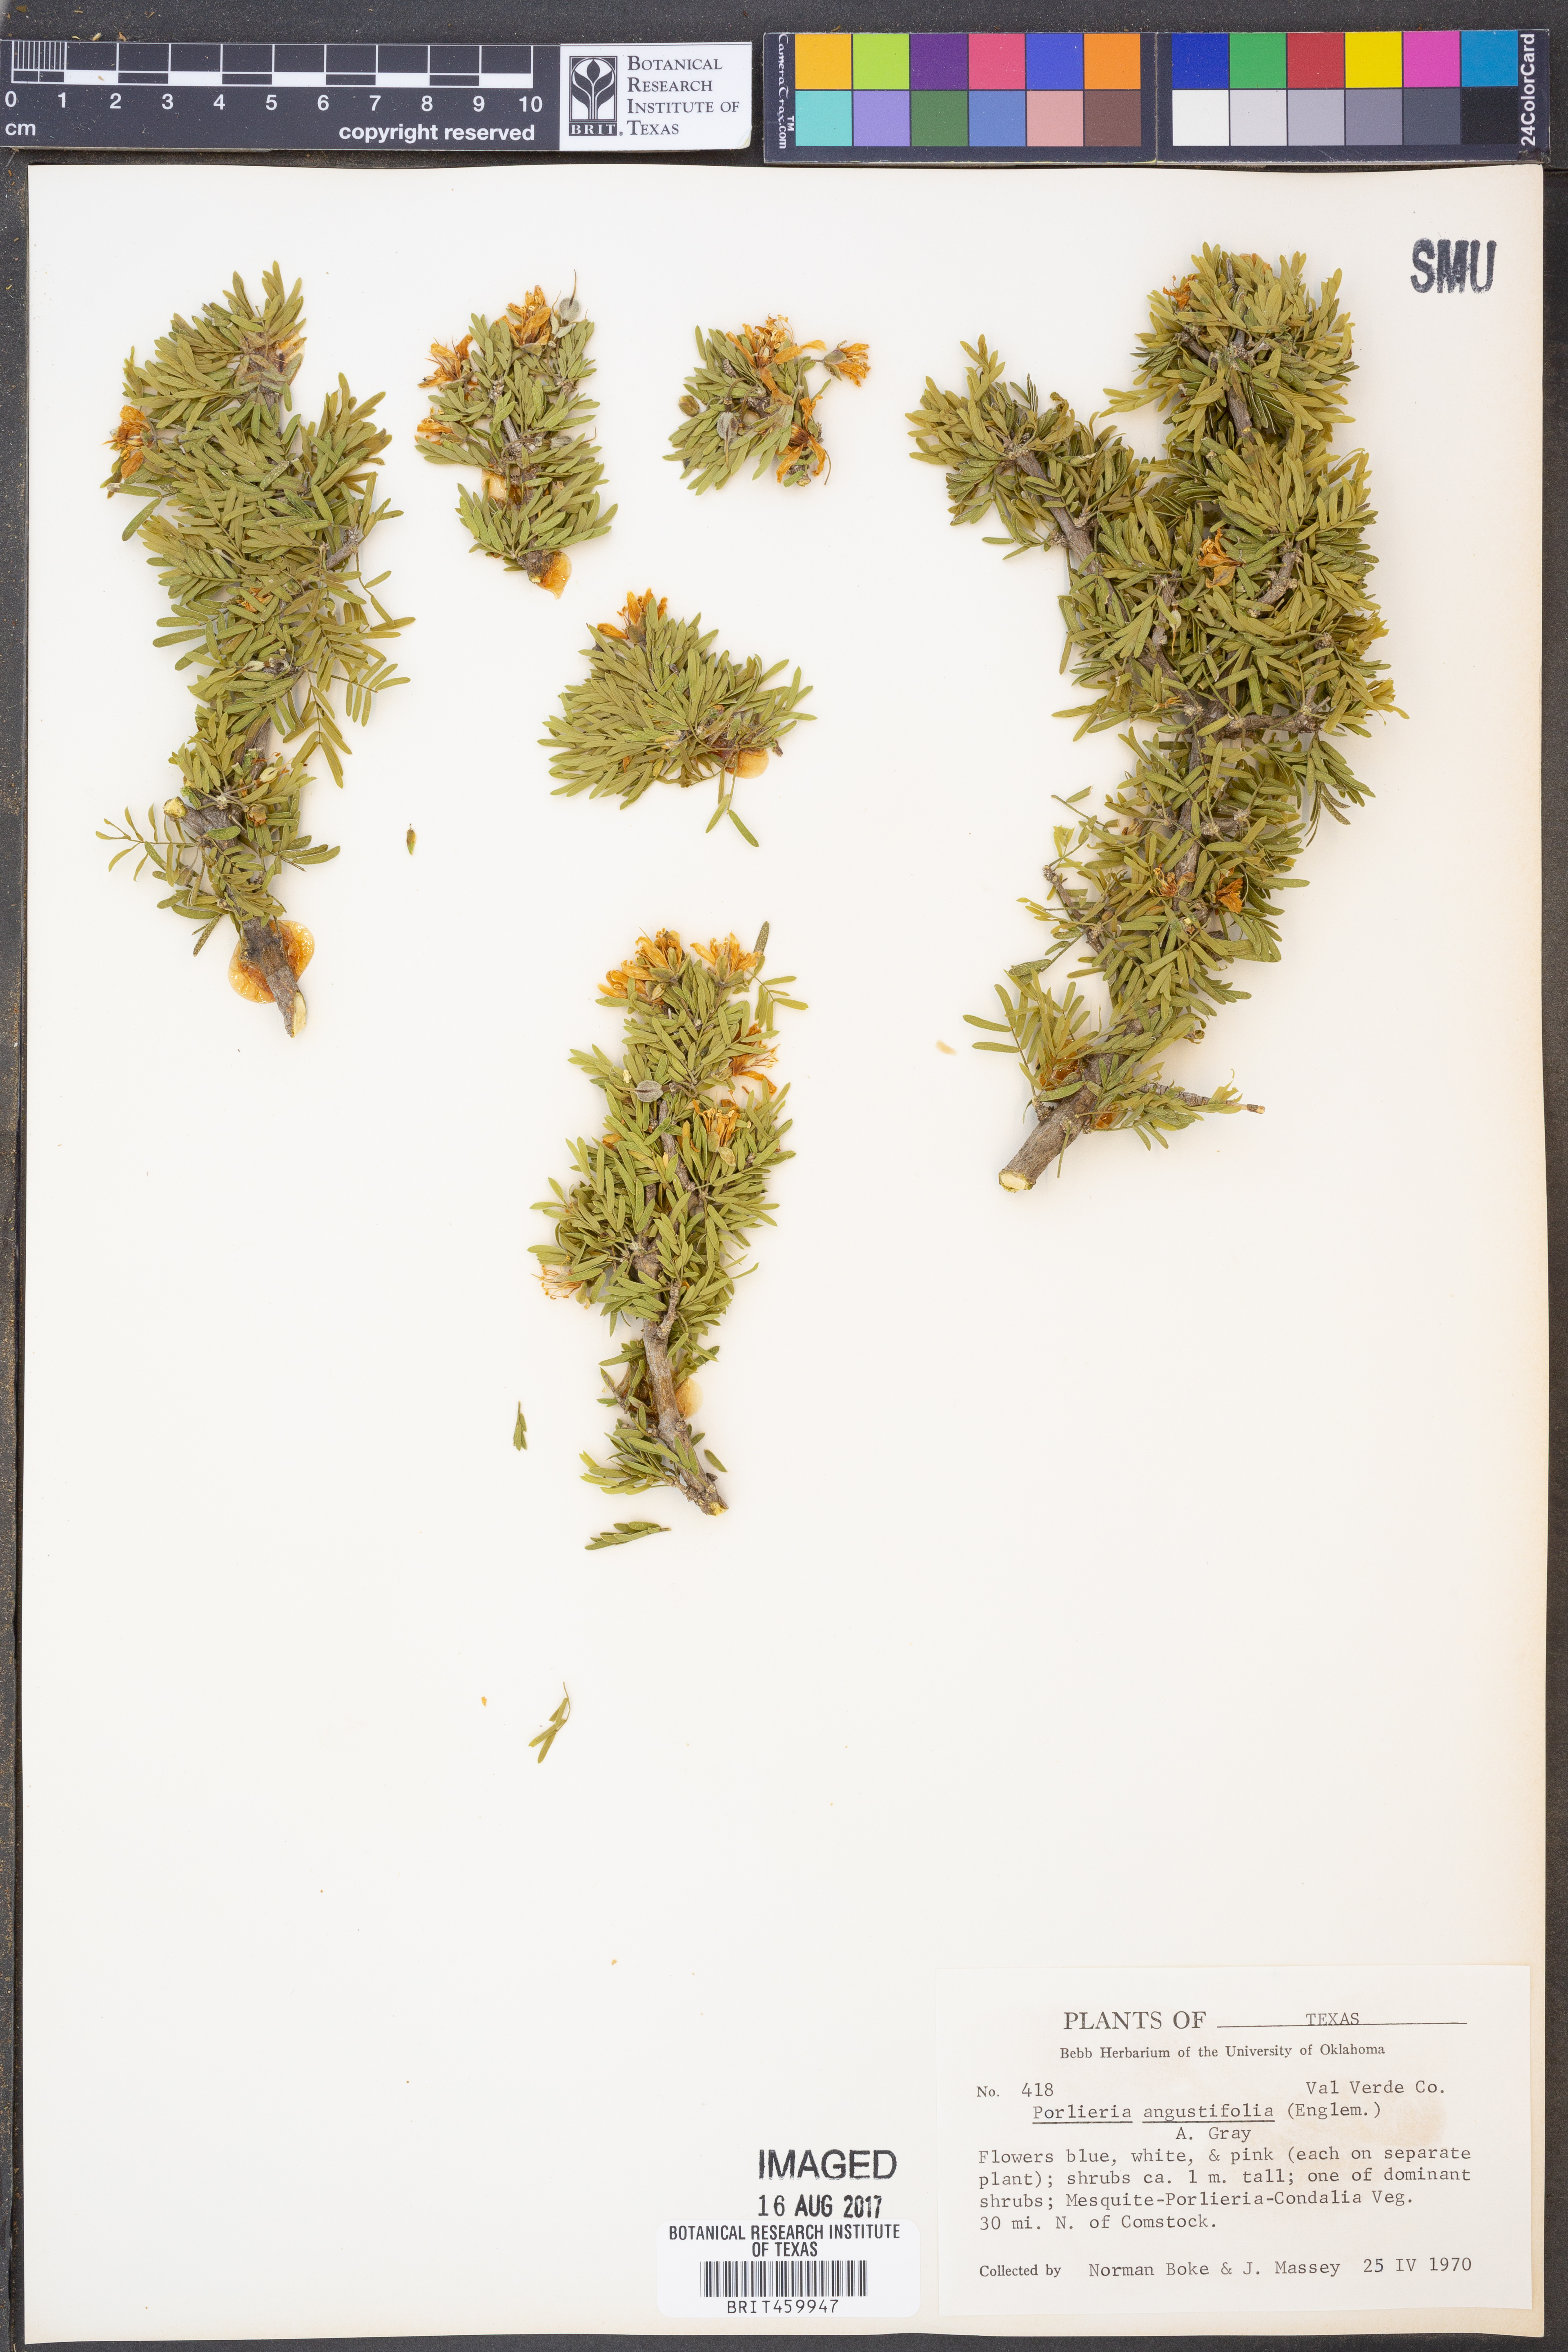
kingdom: Plantae
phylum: Tracheophyta
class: Magnoliopsida
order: Zygophyllales
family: Zygophyllaceae
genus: Porlieria
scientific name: Porlieria angustifolia
